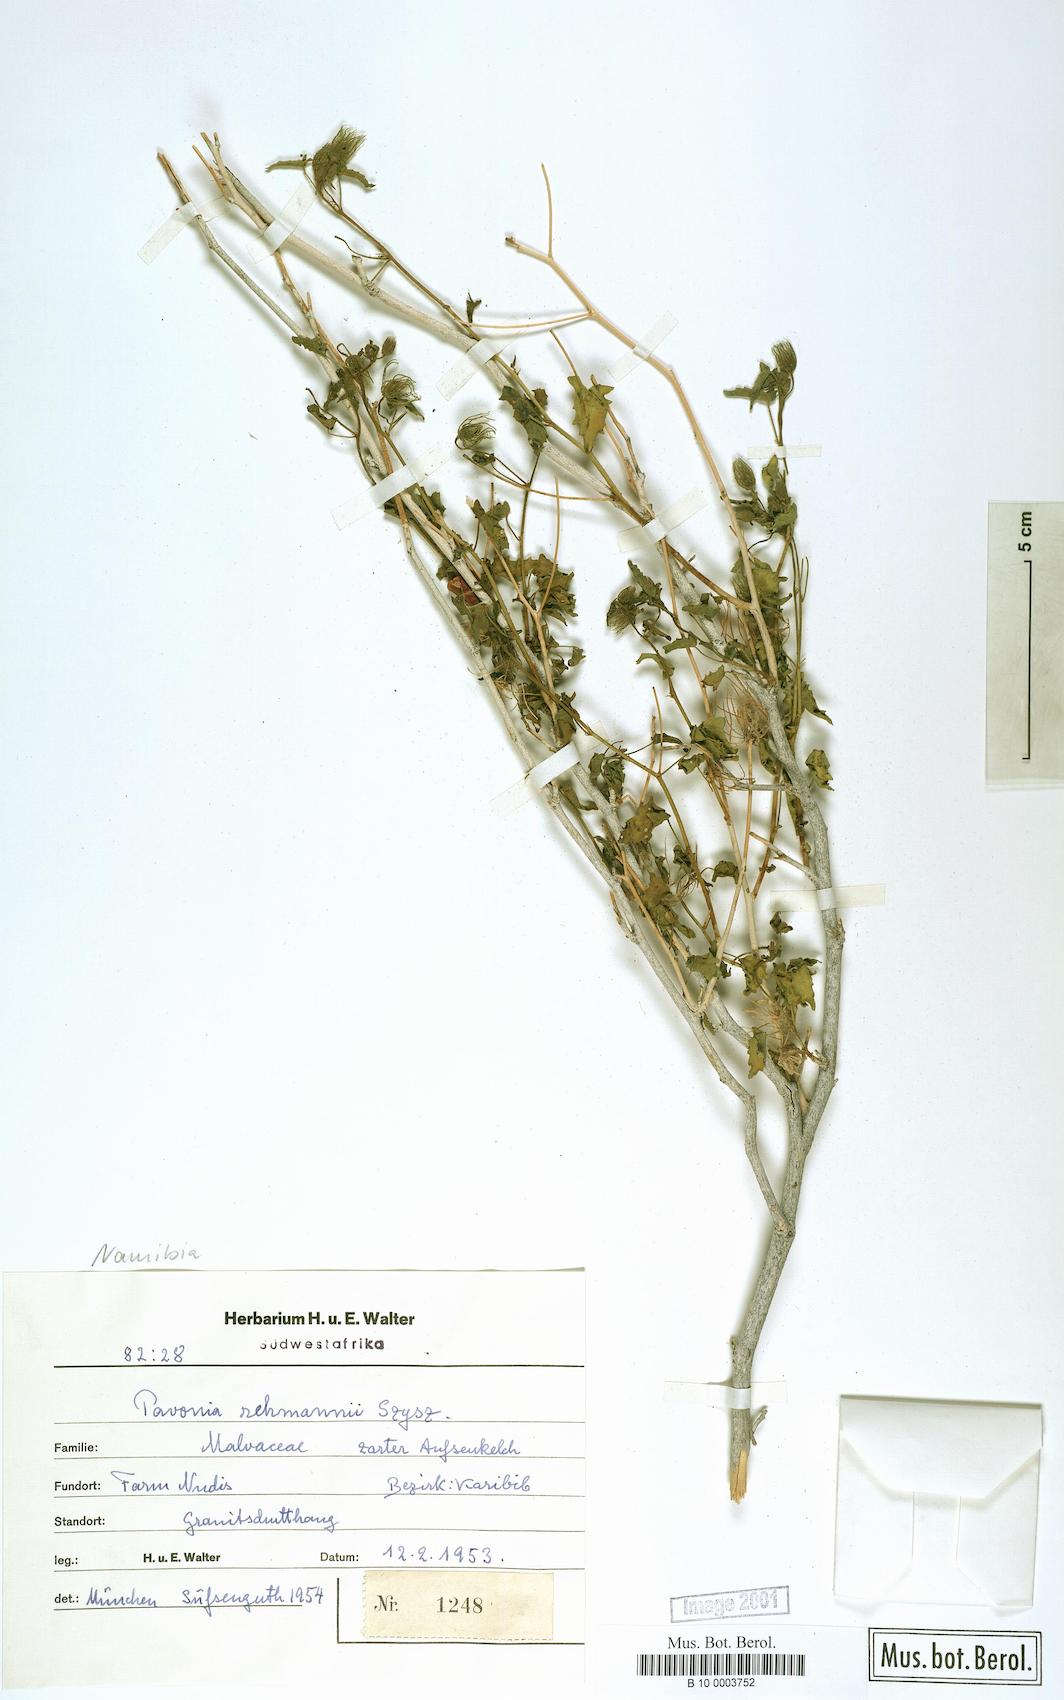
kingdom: Plantae
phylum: Tracheophyta
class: Magnoliopsida
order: Malvales
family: Malvaceae
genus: Pavonia
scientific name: Pavonia columella
